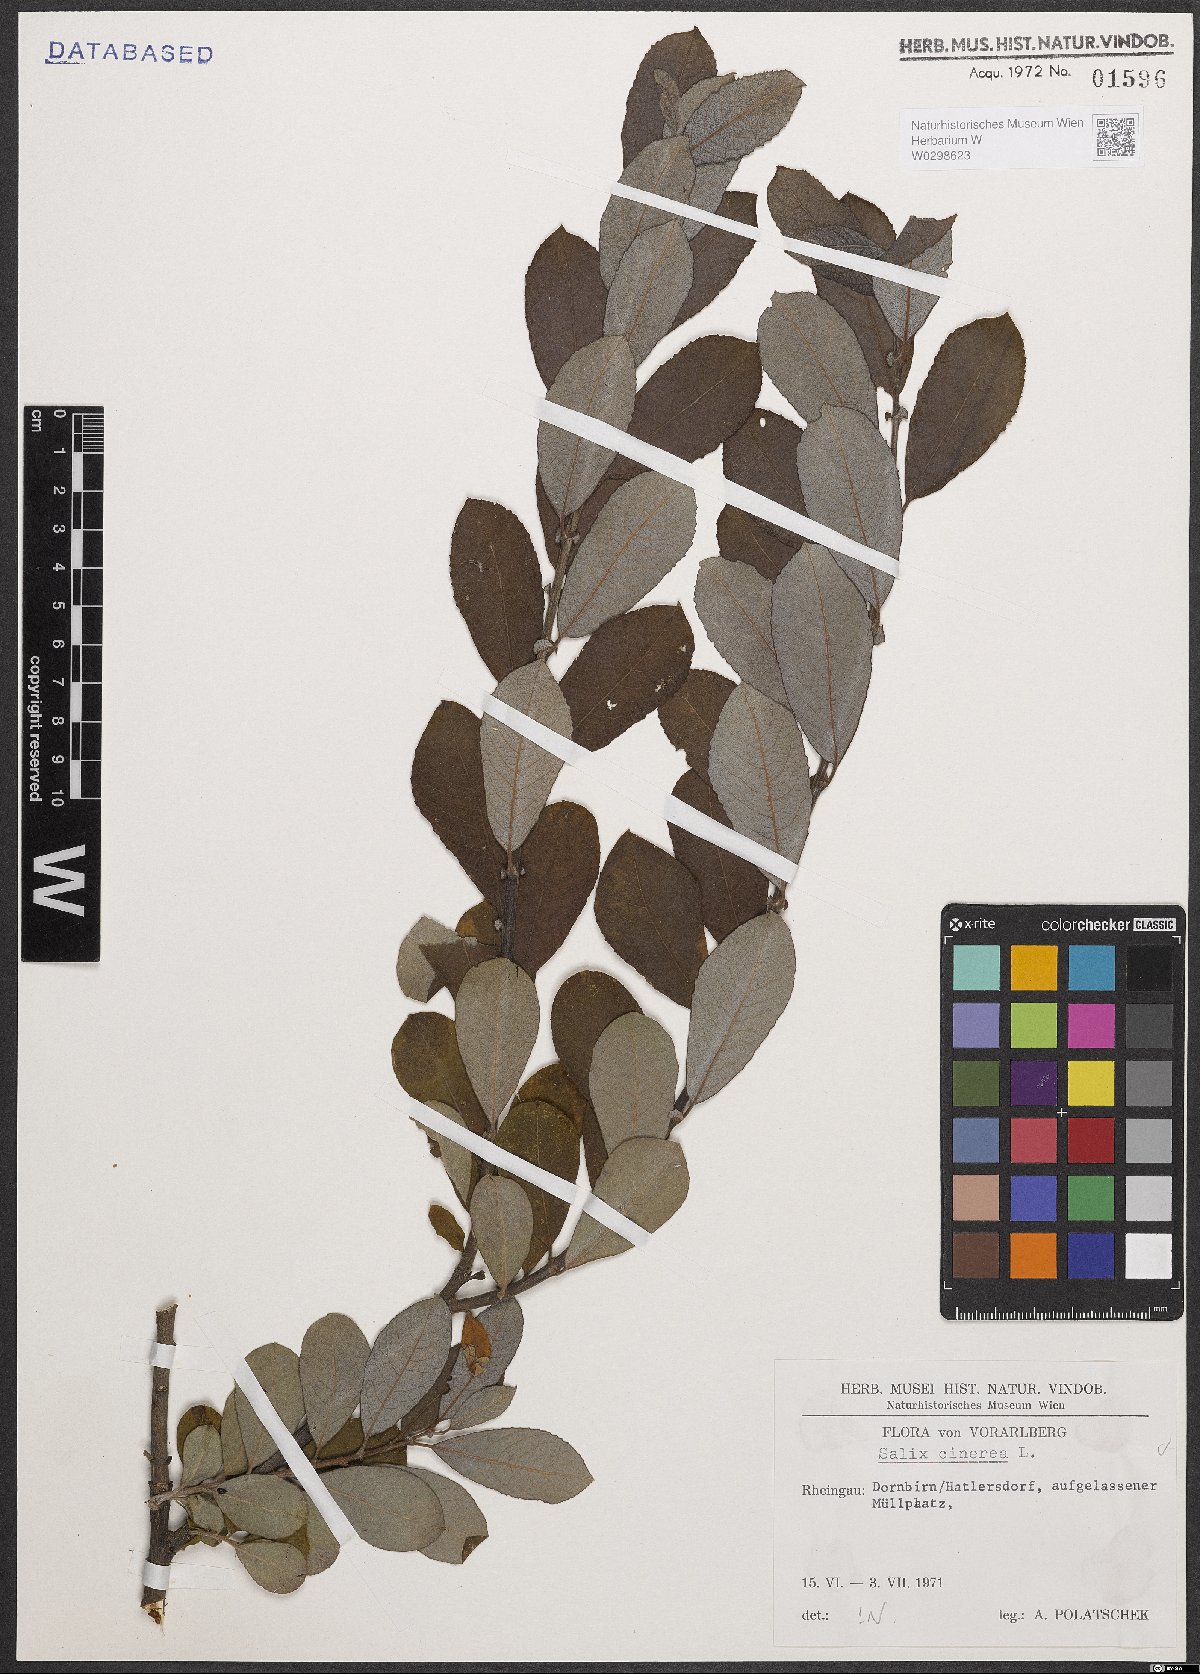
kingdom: Plantae
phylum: Tracheophyta
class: Magnoliopsida
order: Malpighiales
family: Salicaceae
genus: Salix
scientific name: Salix cinerea
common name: Common sallow
